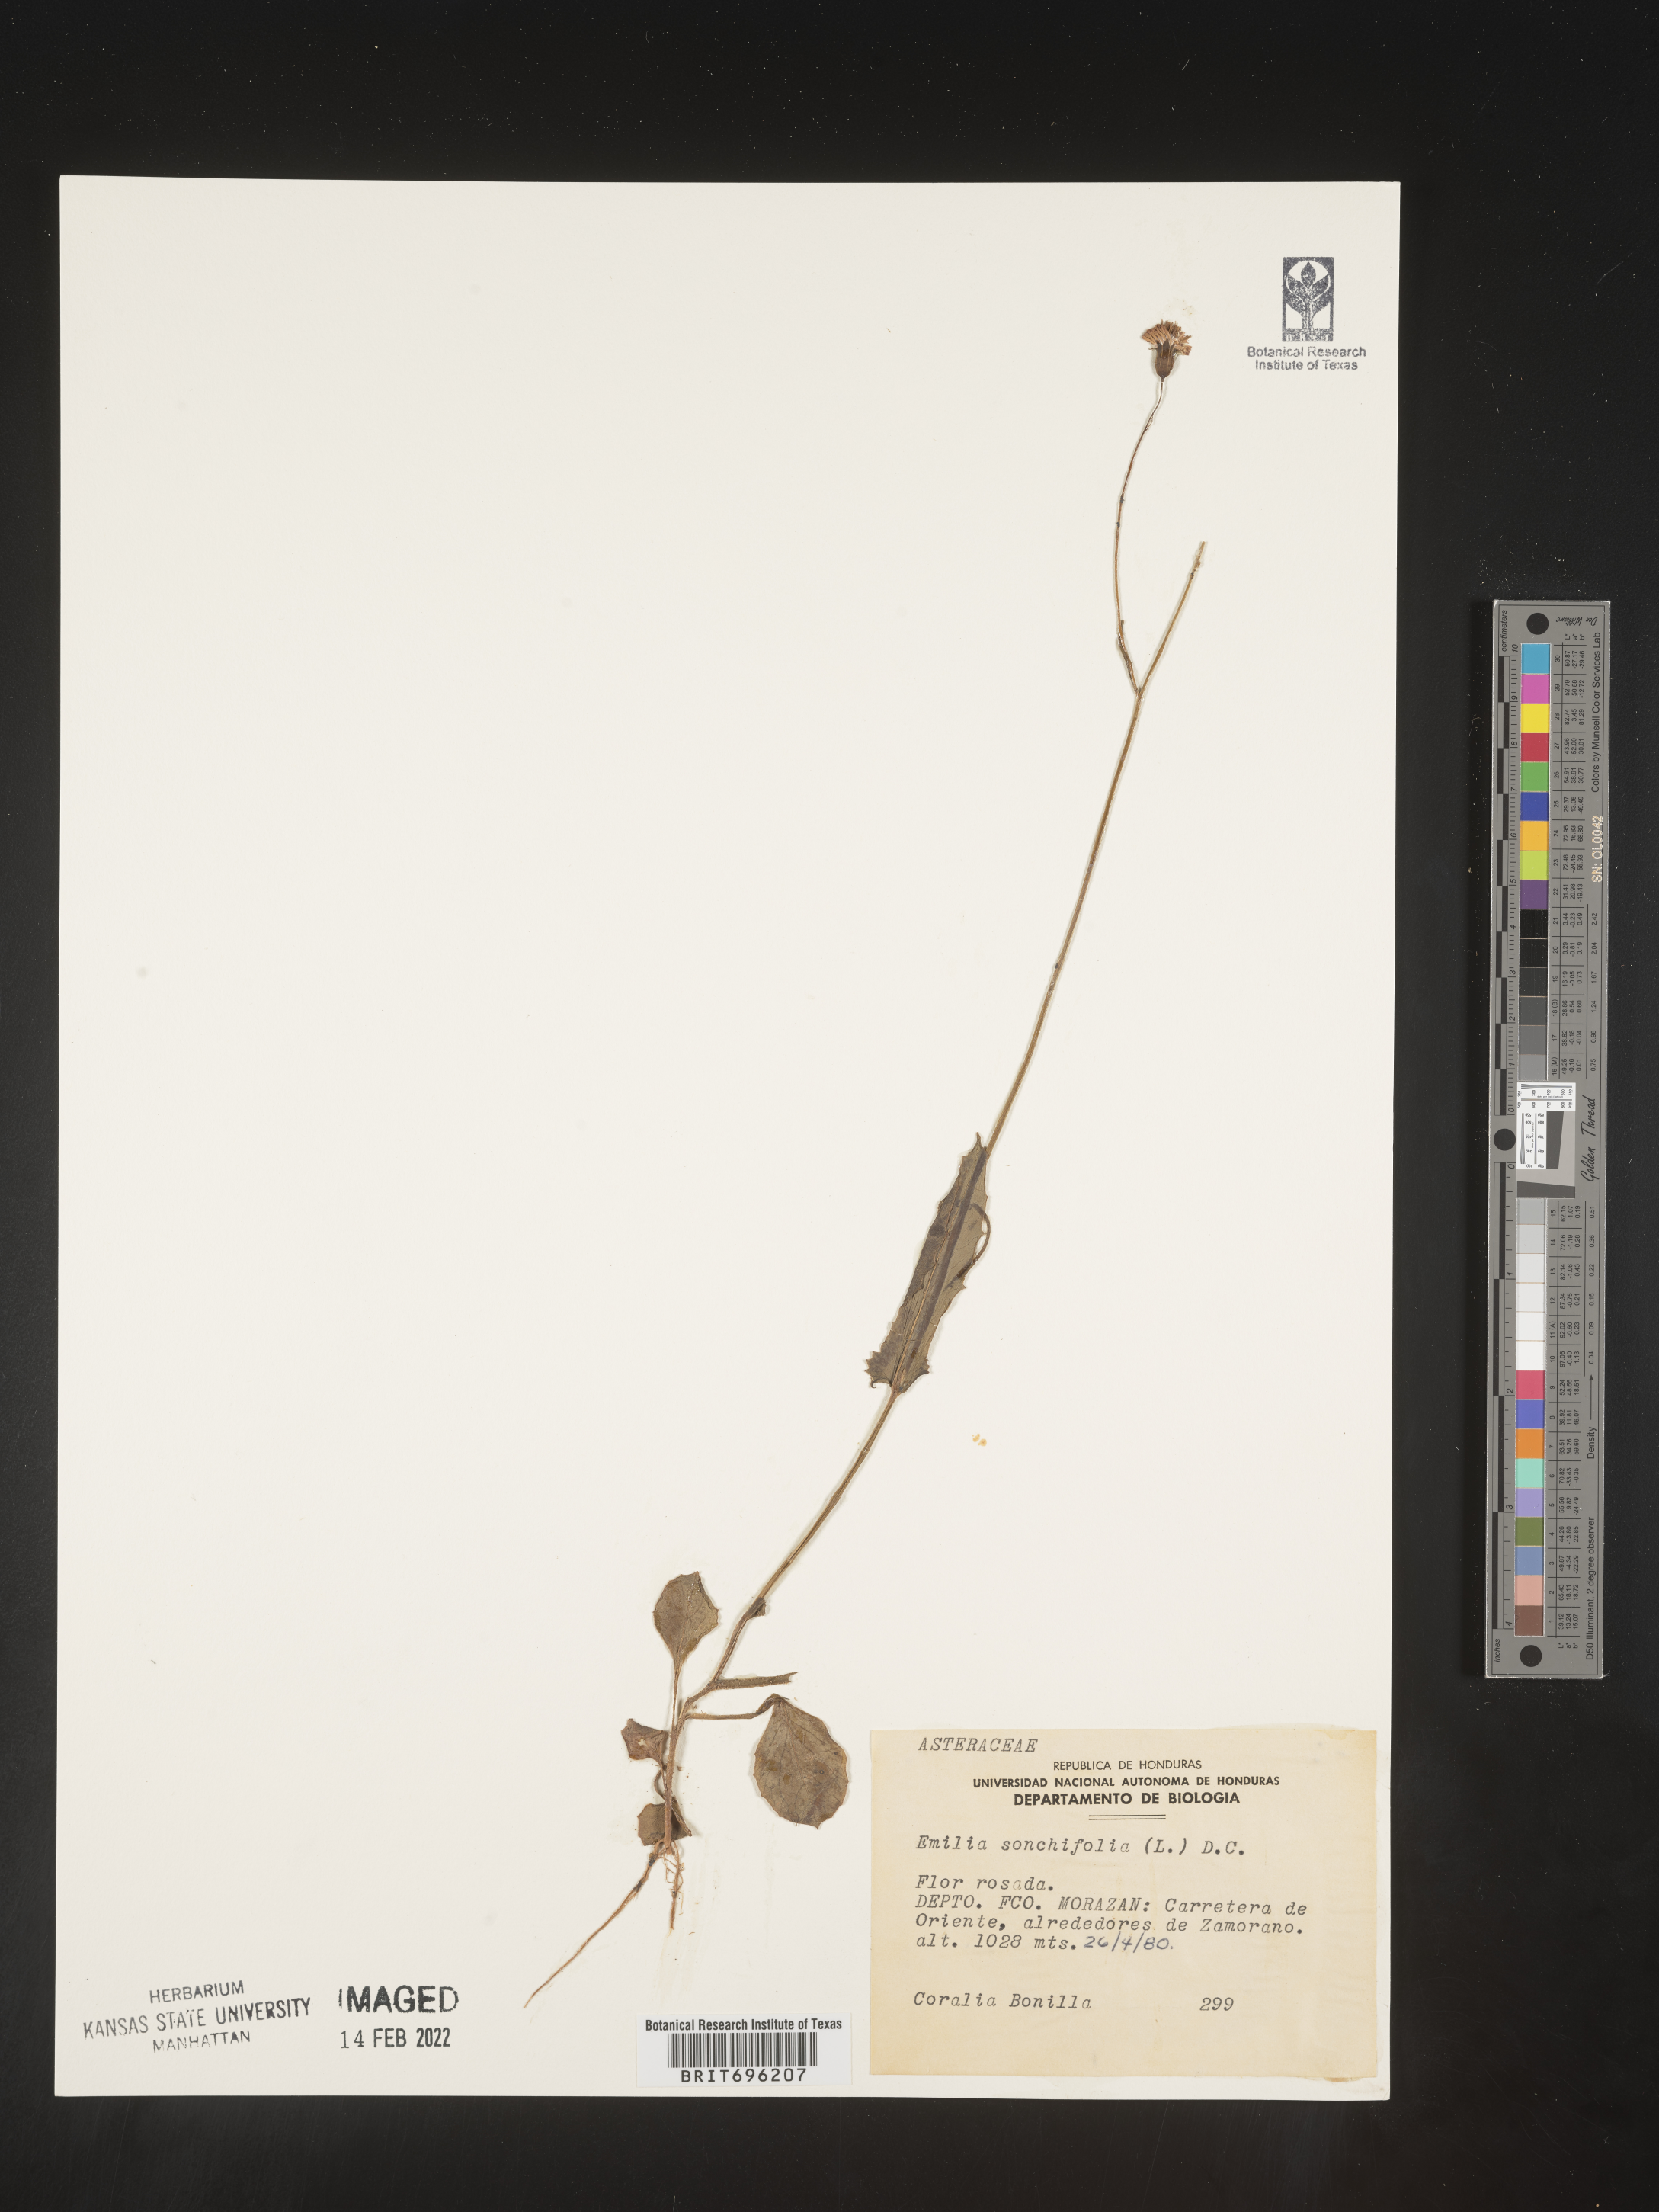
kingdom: Plantae
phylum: Tracheophyta
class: Magnoliopsida
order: Asterales
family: Asteraceae
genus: Emilia
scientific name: Emilia
